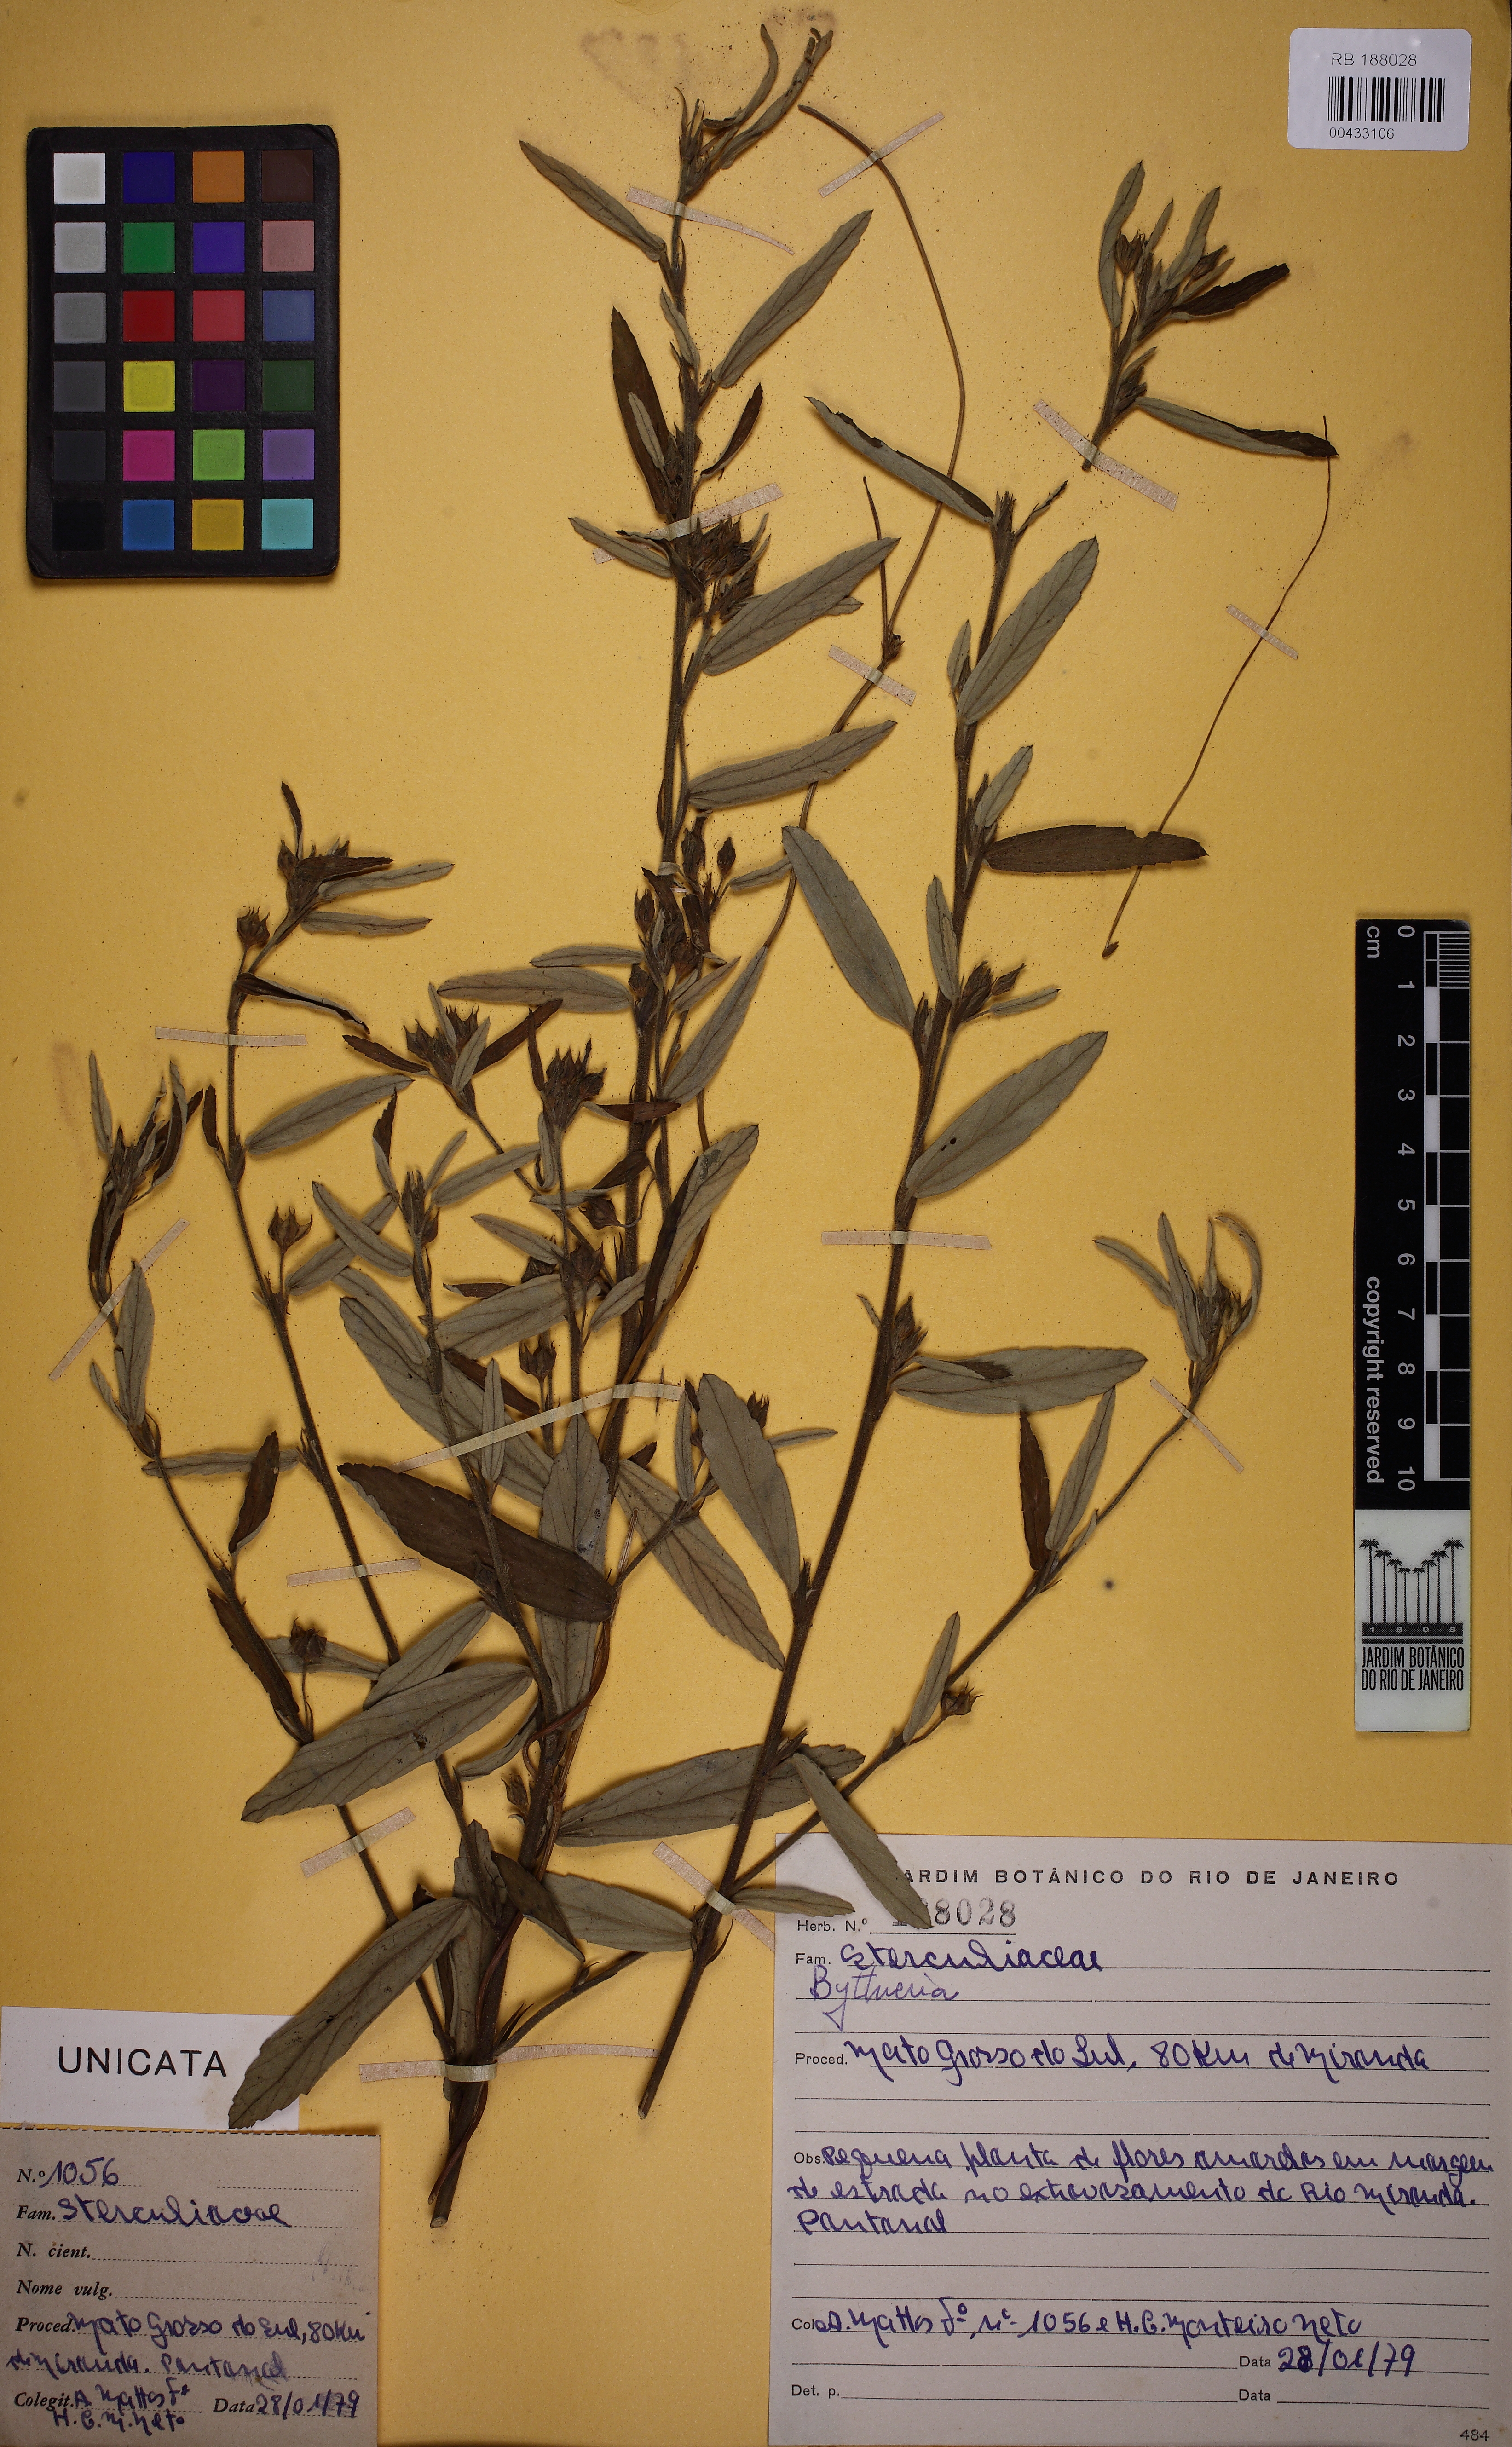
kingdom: Plantae
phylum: Tracheophyta
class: Magnoliopsida
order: Malvales
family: Malvaceae
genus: Byttneria
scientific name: Byttneria
